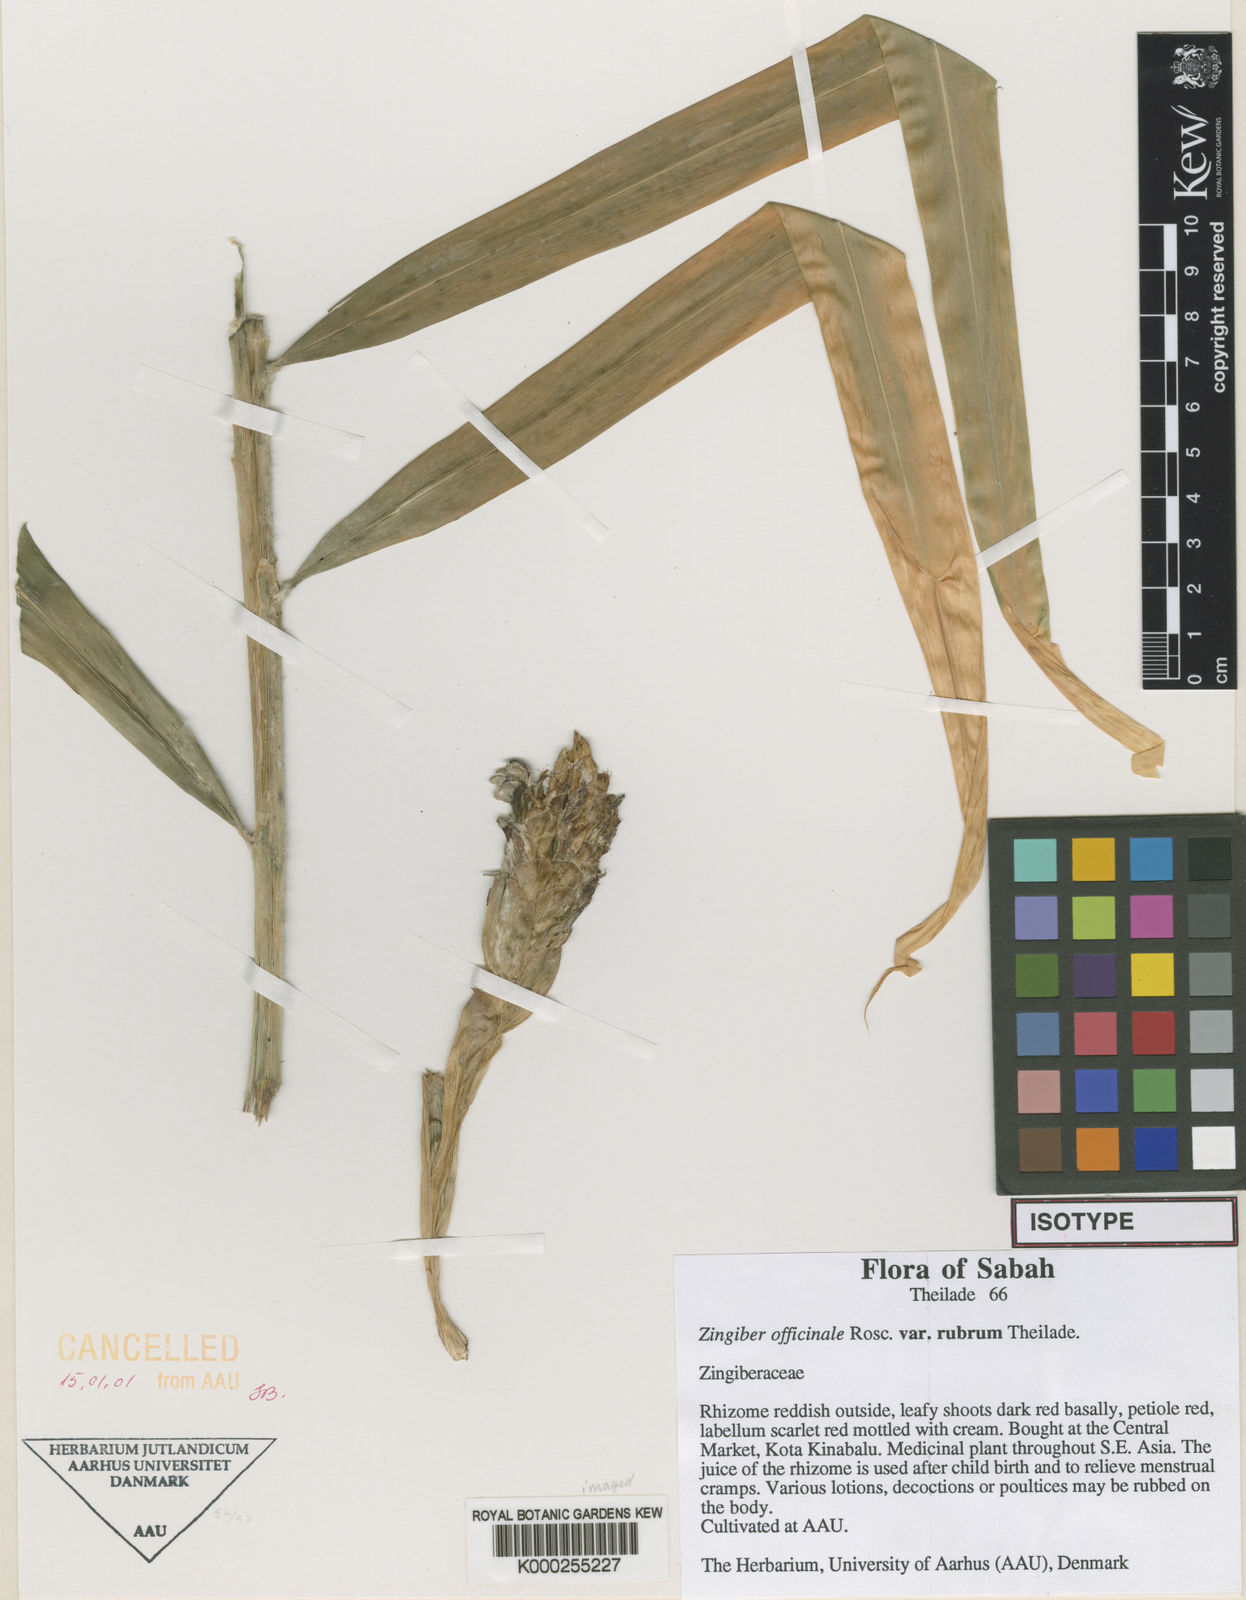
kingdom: Plantae
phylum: Tracheophyta
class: Liliopsida
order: Zingiberales
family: Zingiberaceae
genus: Zingiber
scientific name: Zingiber officinale
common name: Ginger
